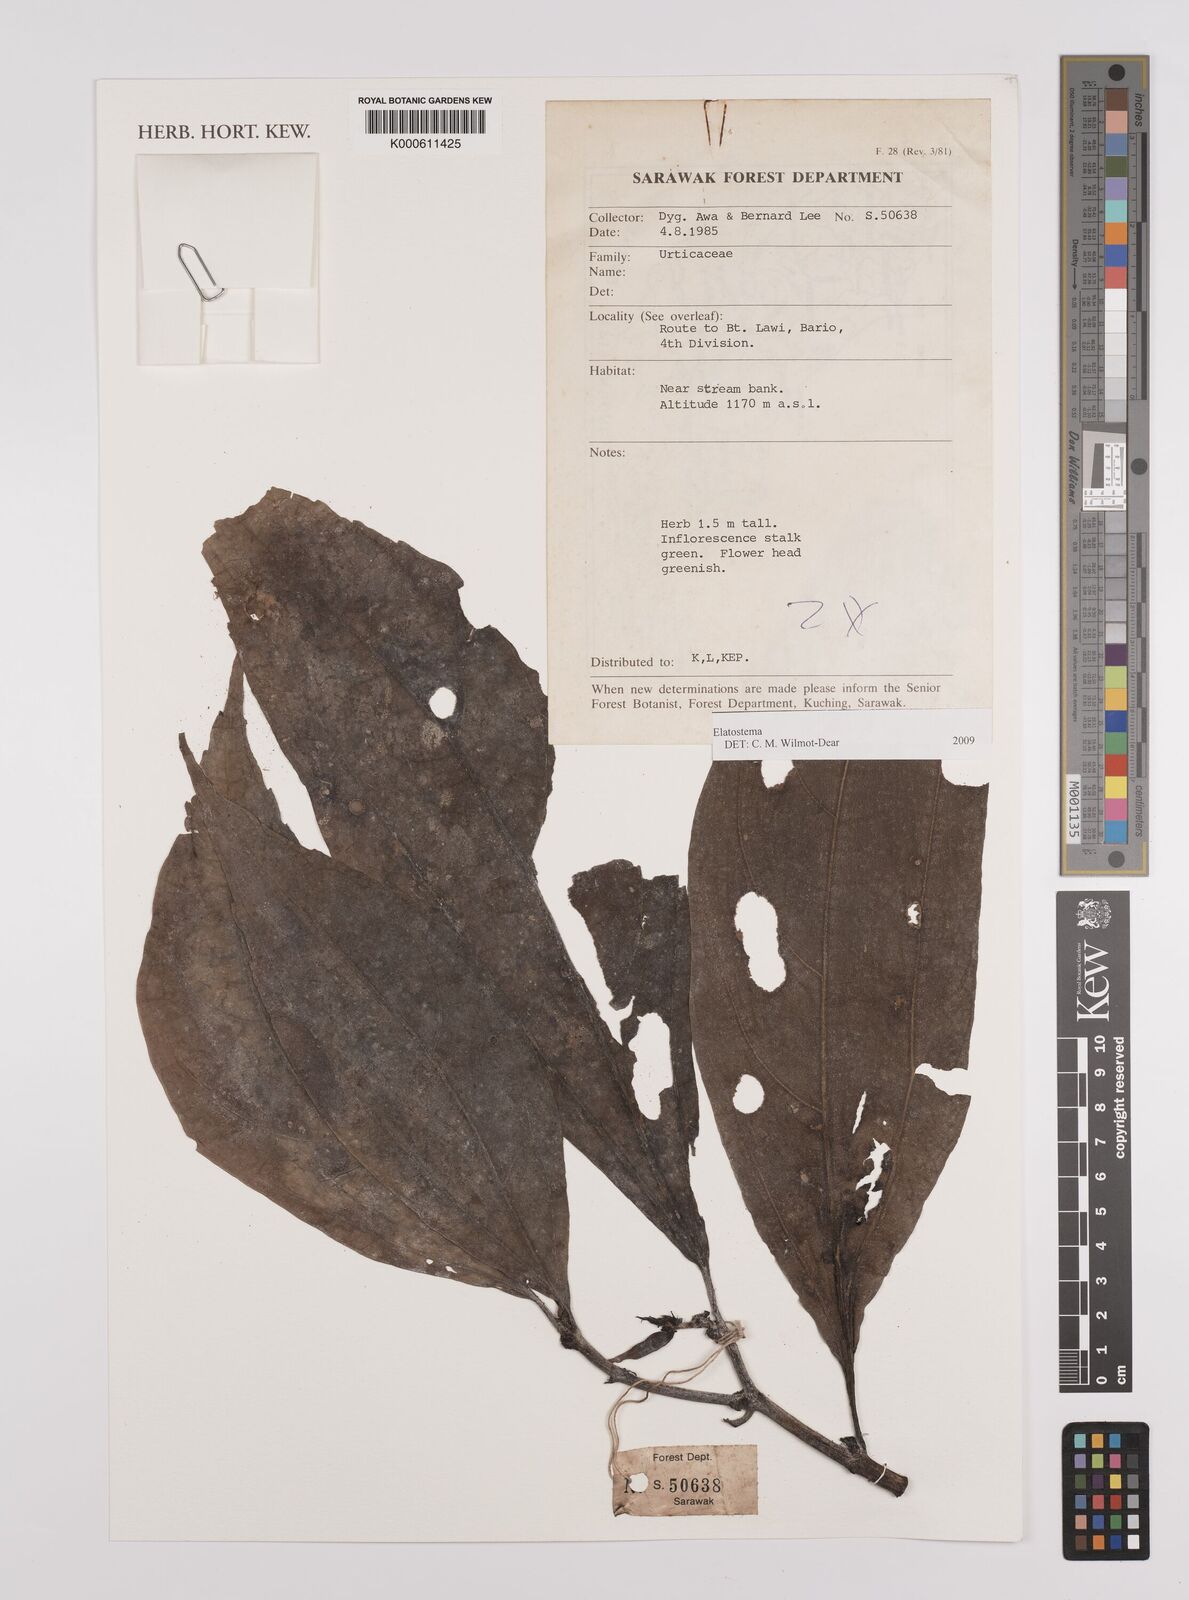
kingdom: Plantae
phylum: Tracheophyta
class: Magnoliopsida
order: Rosales
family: Urticaceae
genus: Elatostema
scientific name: Elatostema
